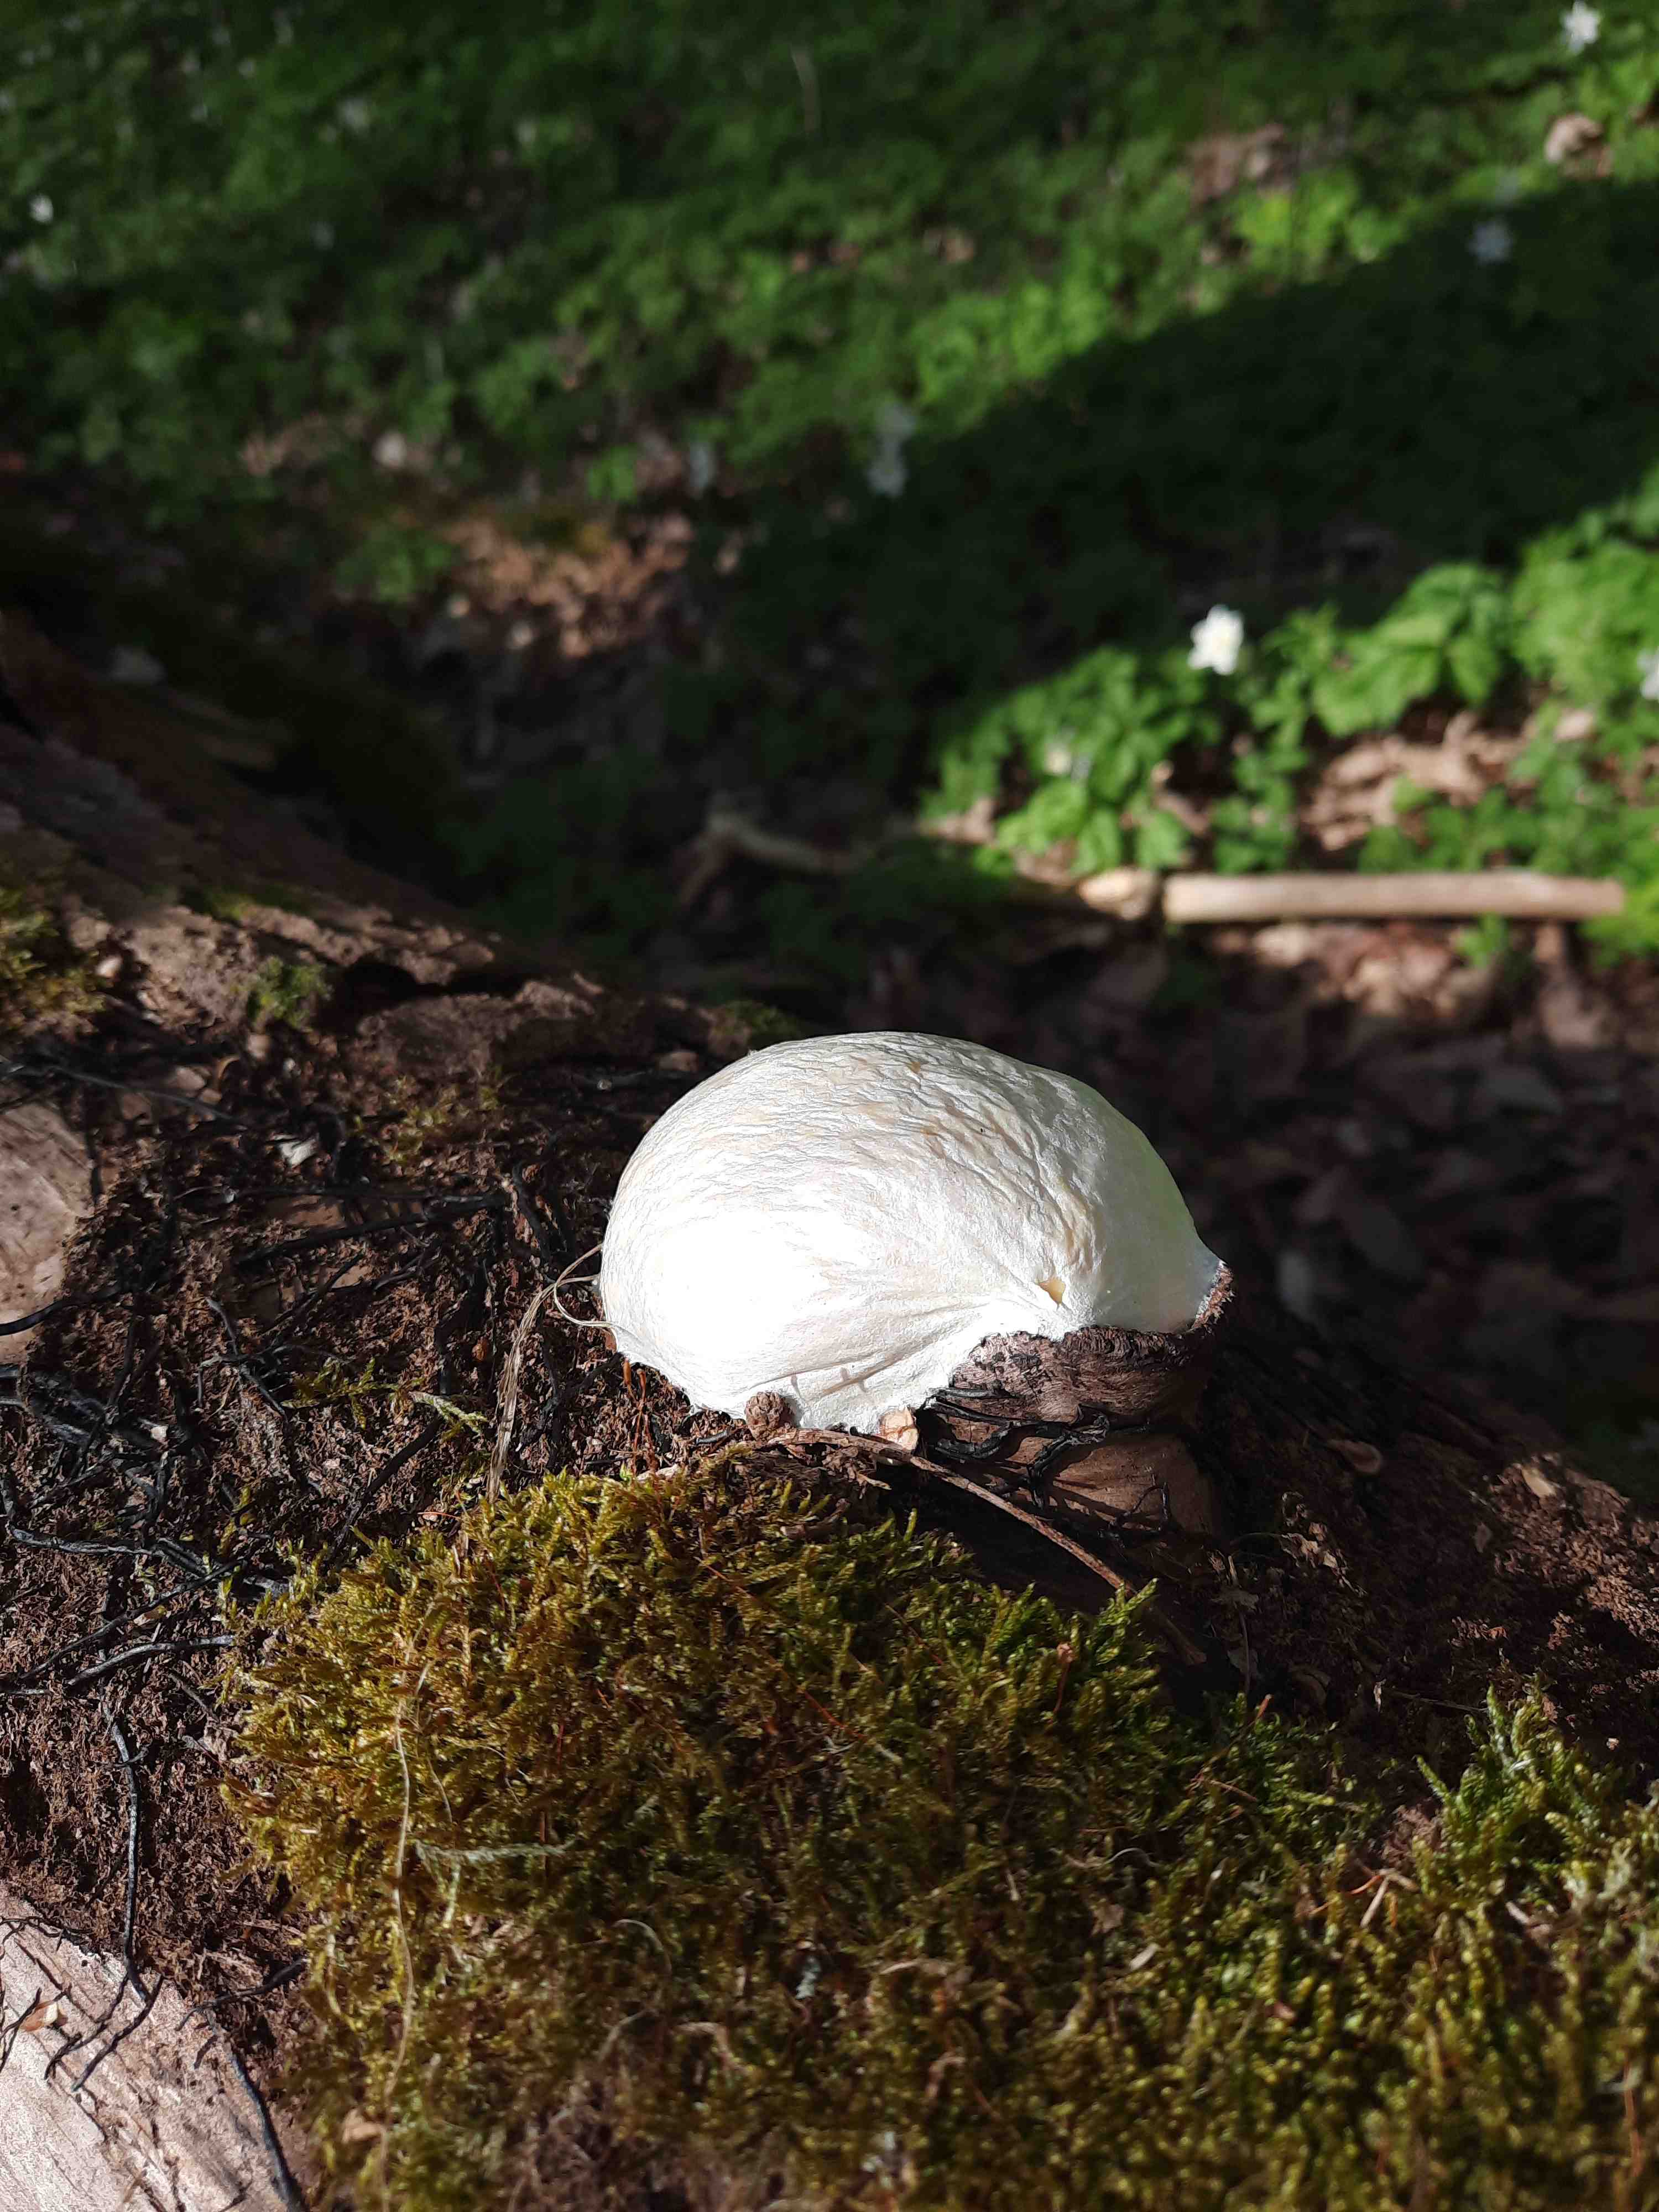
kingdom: Protozoa
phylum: Mycetozoa
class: Myxomycetes
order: Cribrariales
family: Tubiferaceae
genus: Reticularia
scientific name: Reticularia lycoperdon
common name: skinnende støvpude
